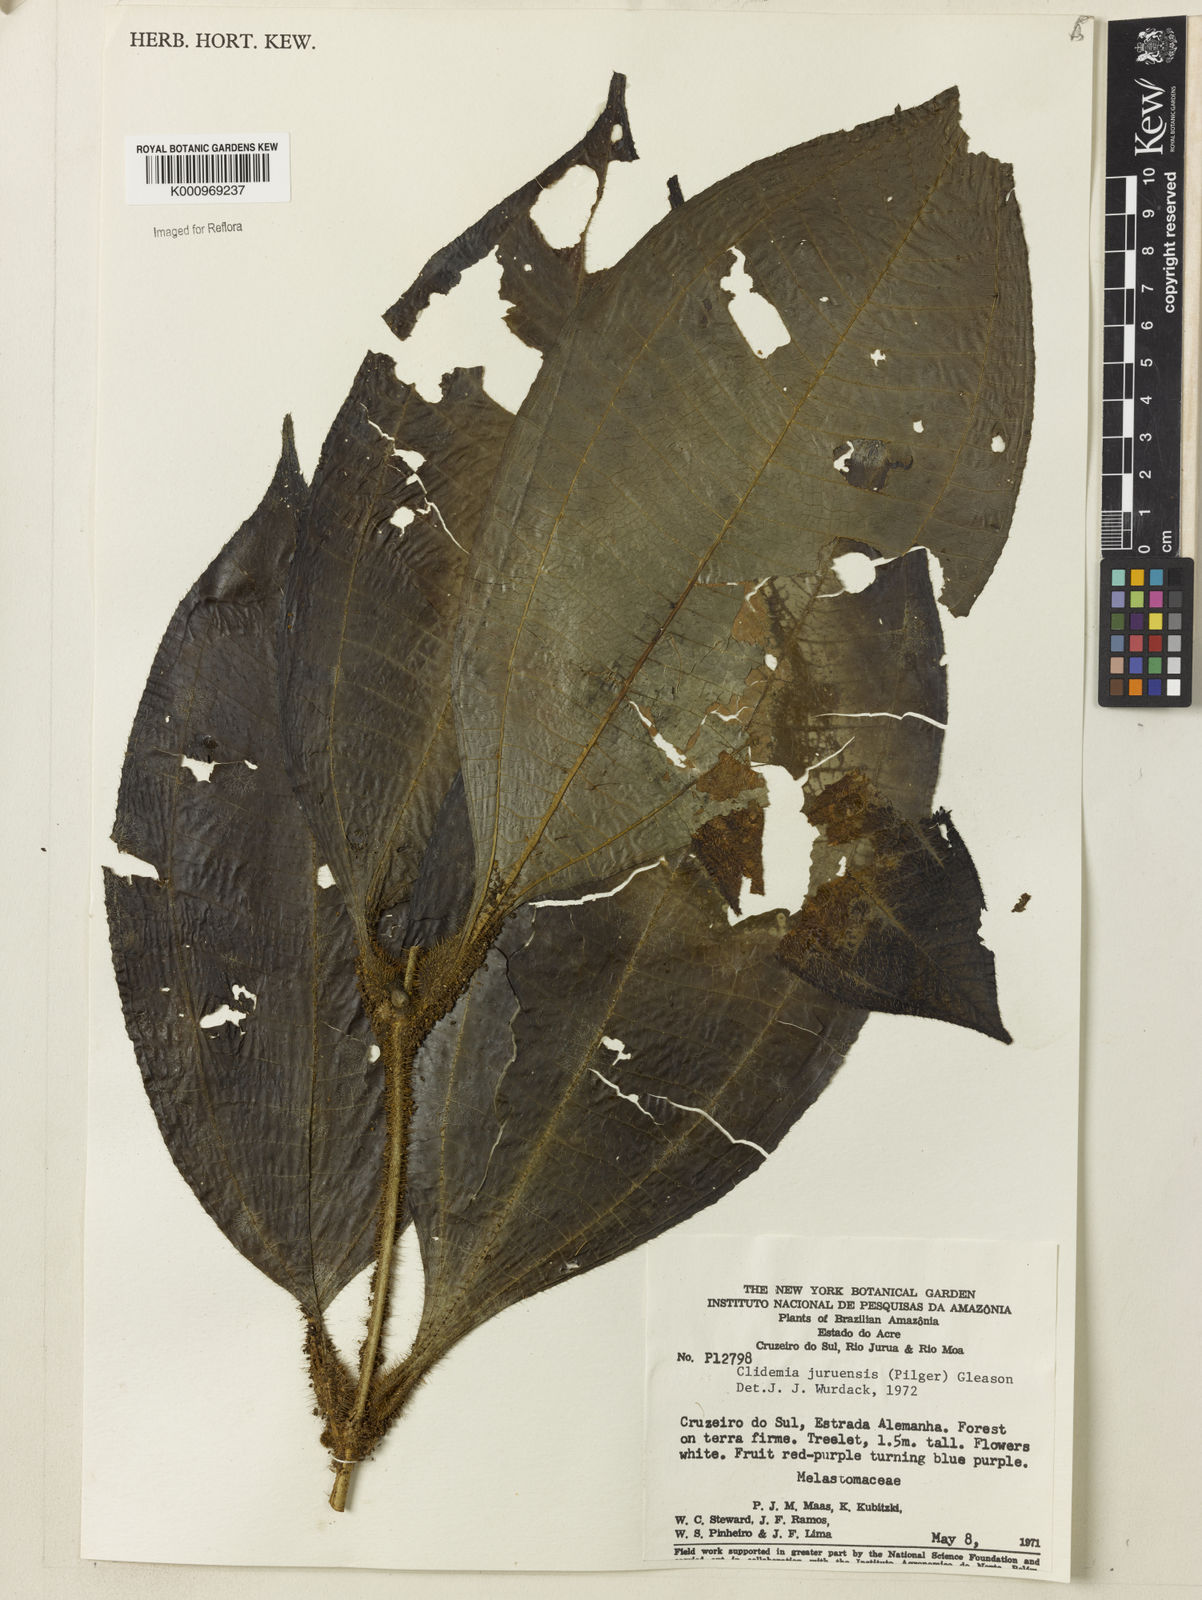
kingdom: Plantae
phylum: Tracheophyta
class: Magnoliopsida
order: Myrtales
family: Melastomataceae
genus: Miconia
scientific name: Miconia formicojuruensis
